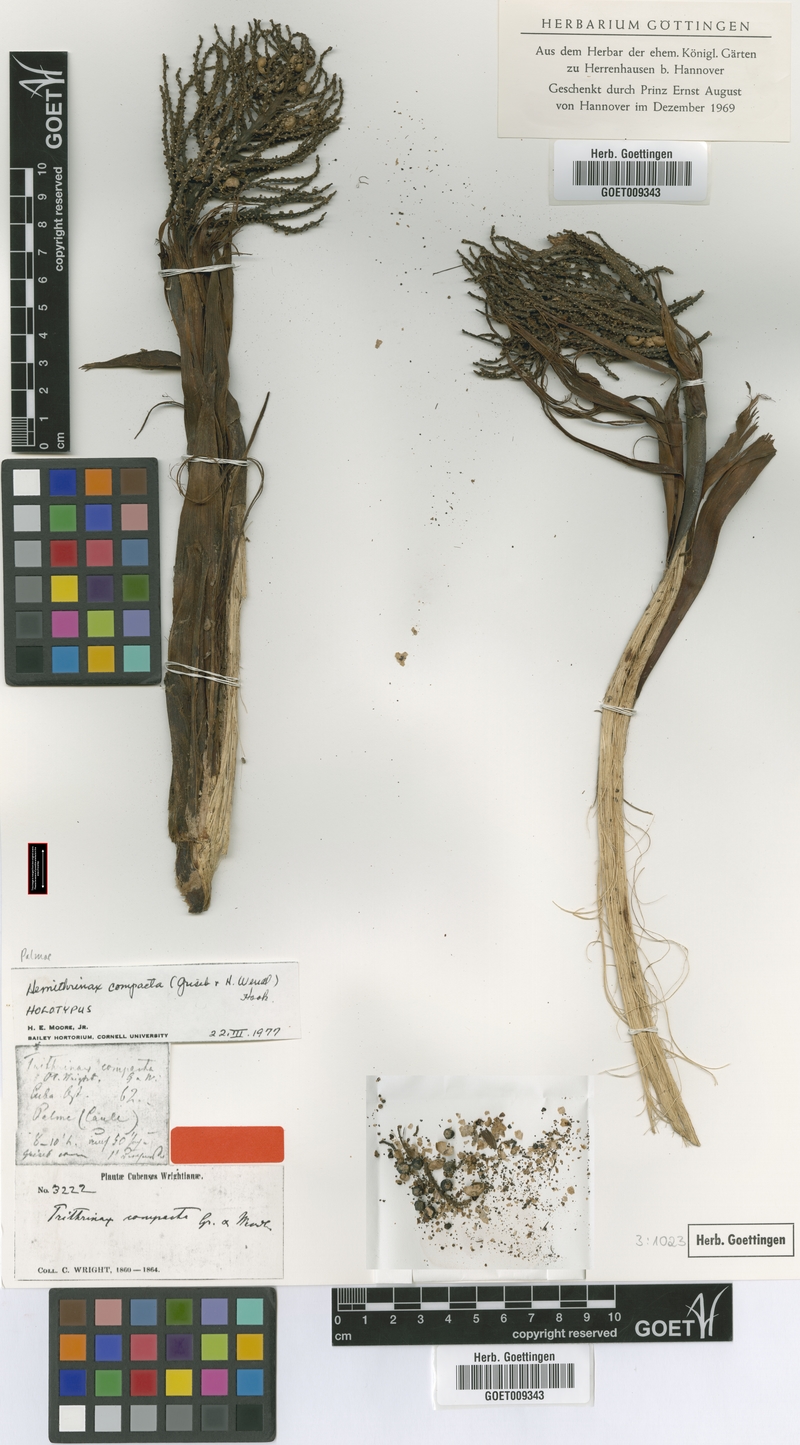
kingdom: Plantae
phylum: Tracheophyta
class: Liliopsida
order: Arecales
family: Arecaceae
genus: Hemithrinax
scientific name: Hemithrinax compacta
